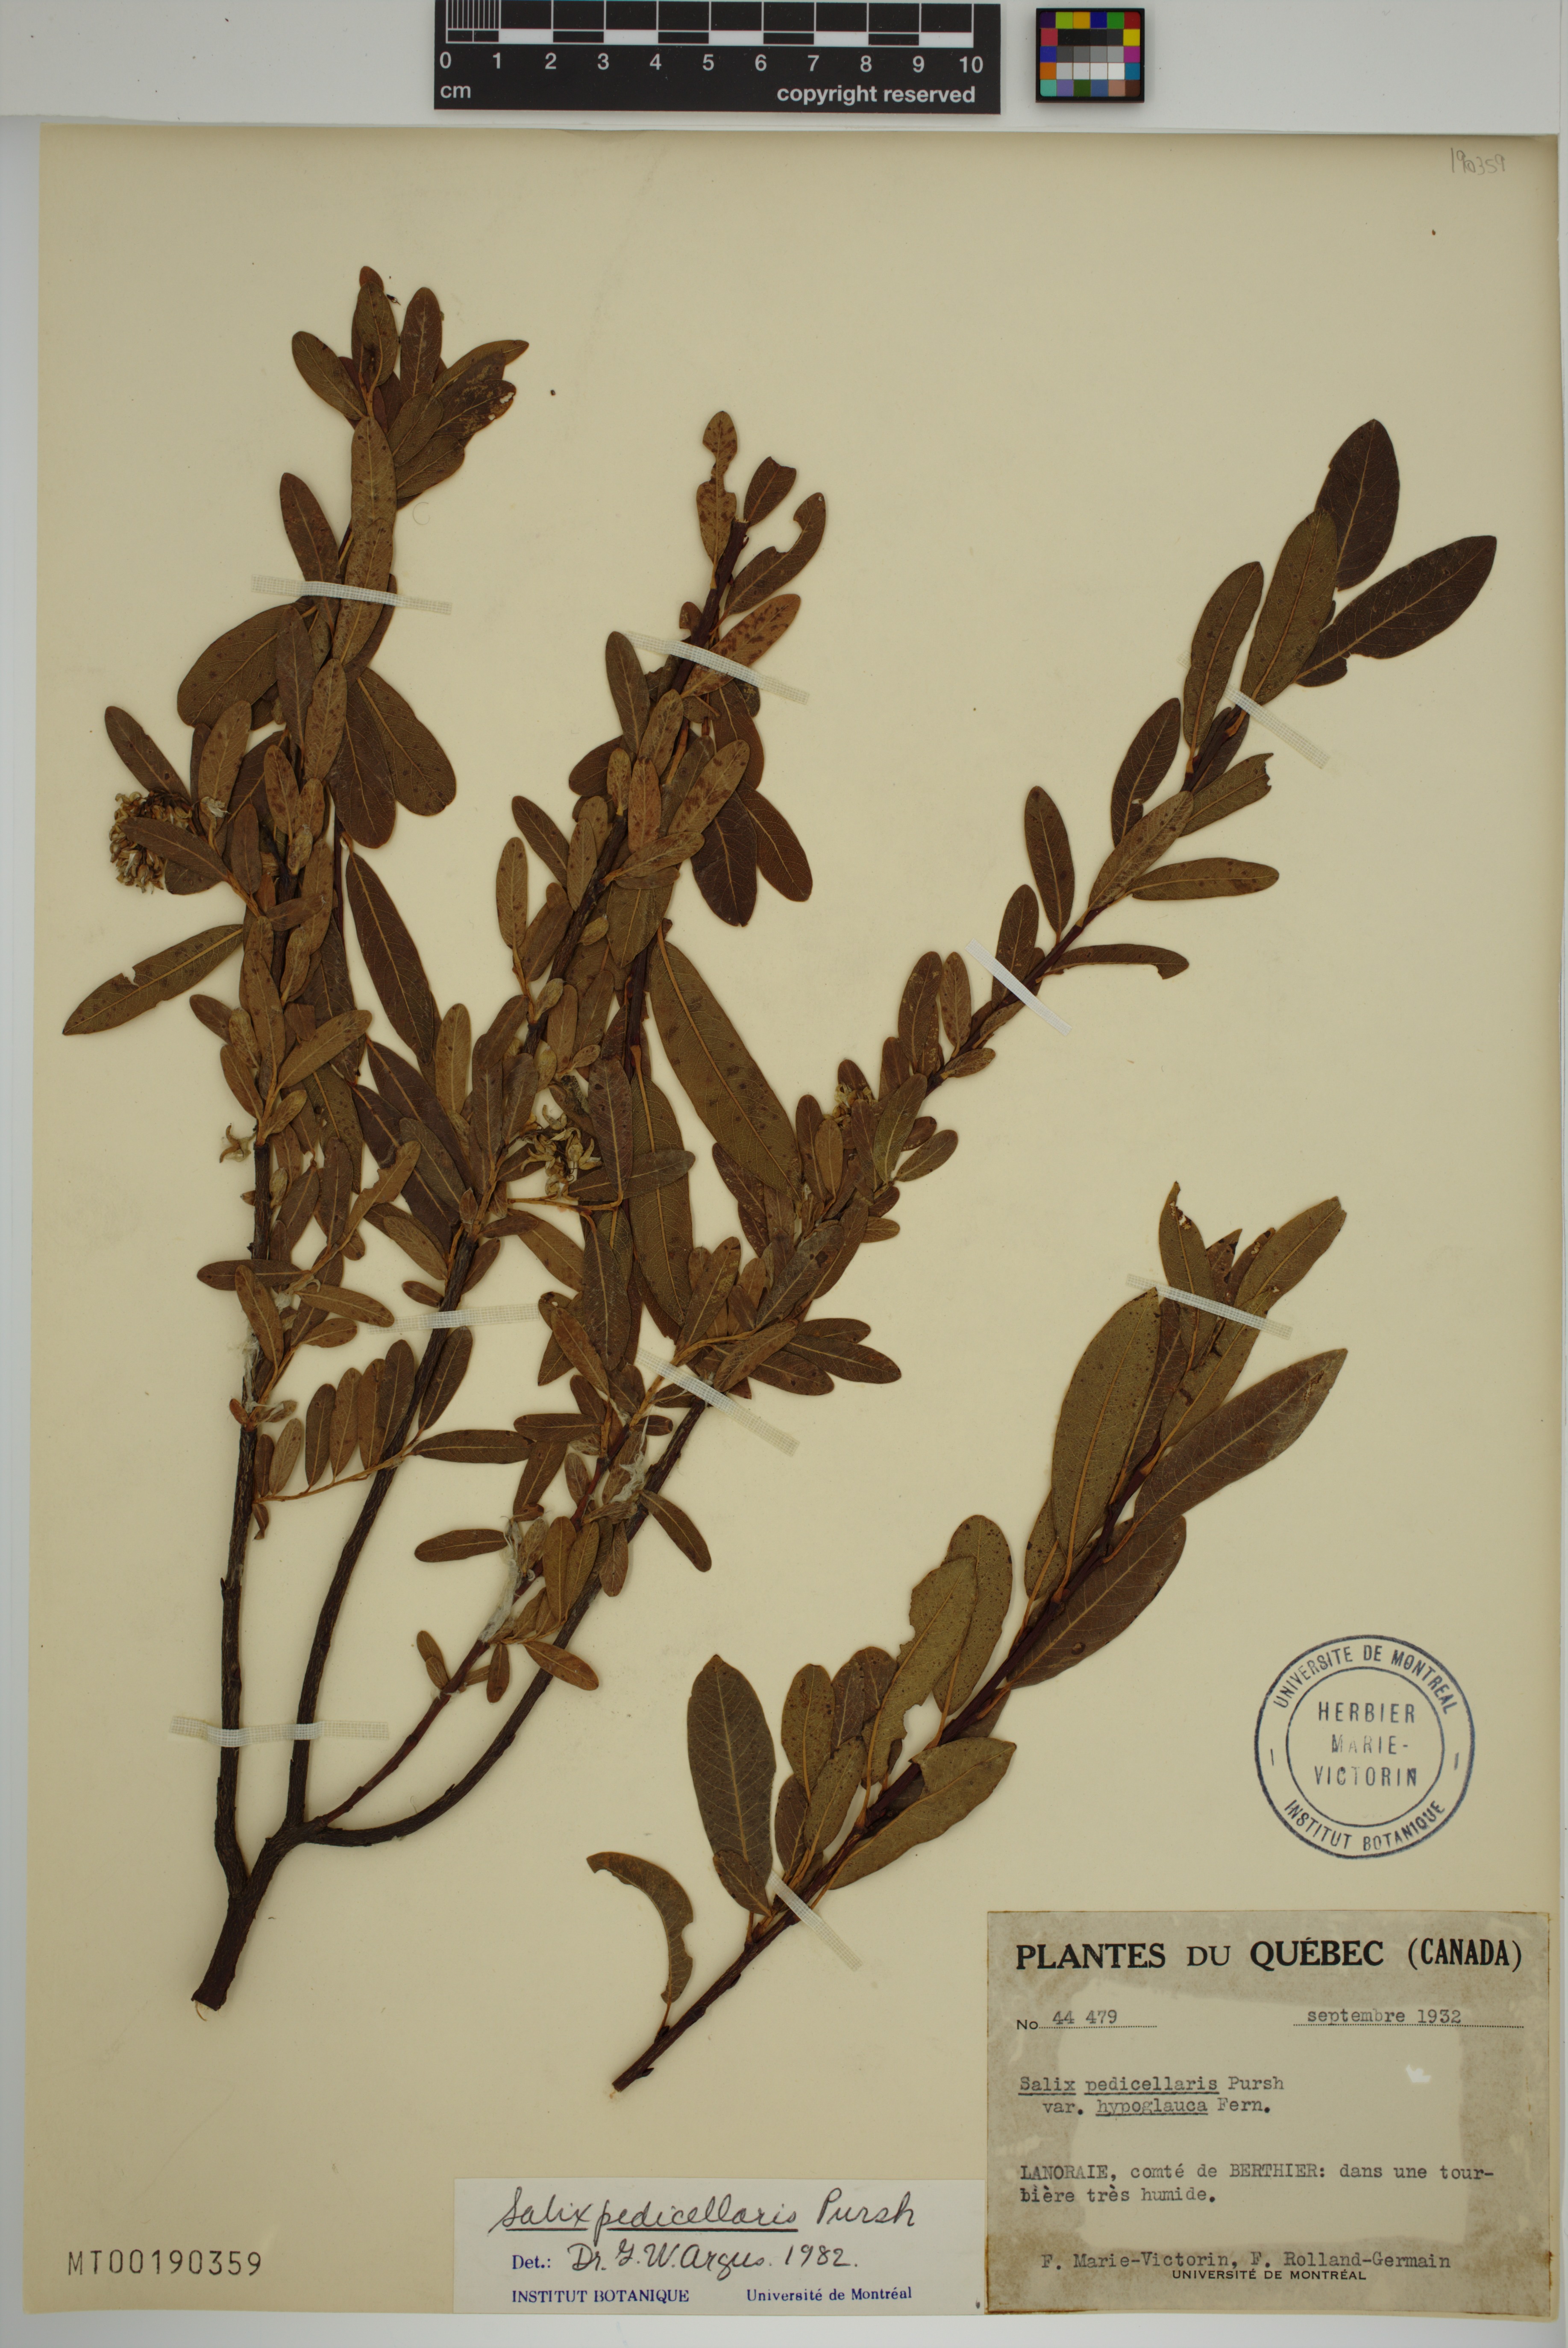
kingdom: Plantae
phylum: Tracheophyta
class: Magnoliopsida
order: Malpighiales
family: Salicaceae
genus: Salix
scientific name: Salix pedicellaris
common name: Bog willow
